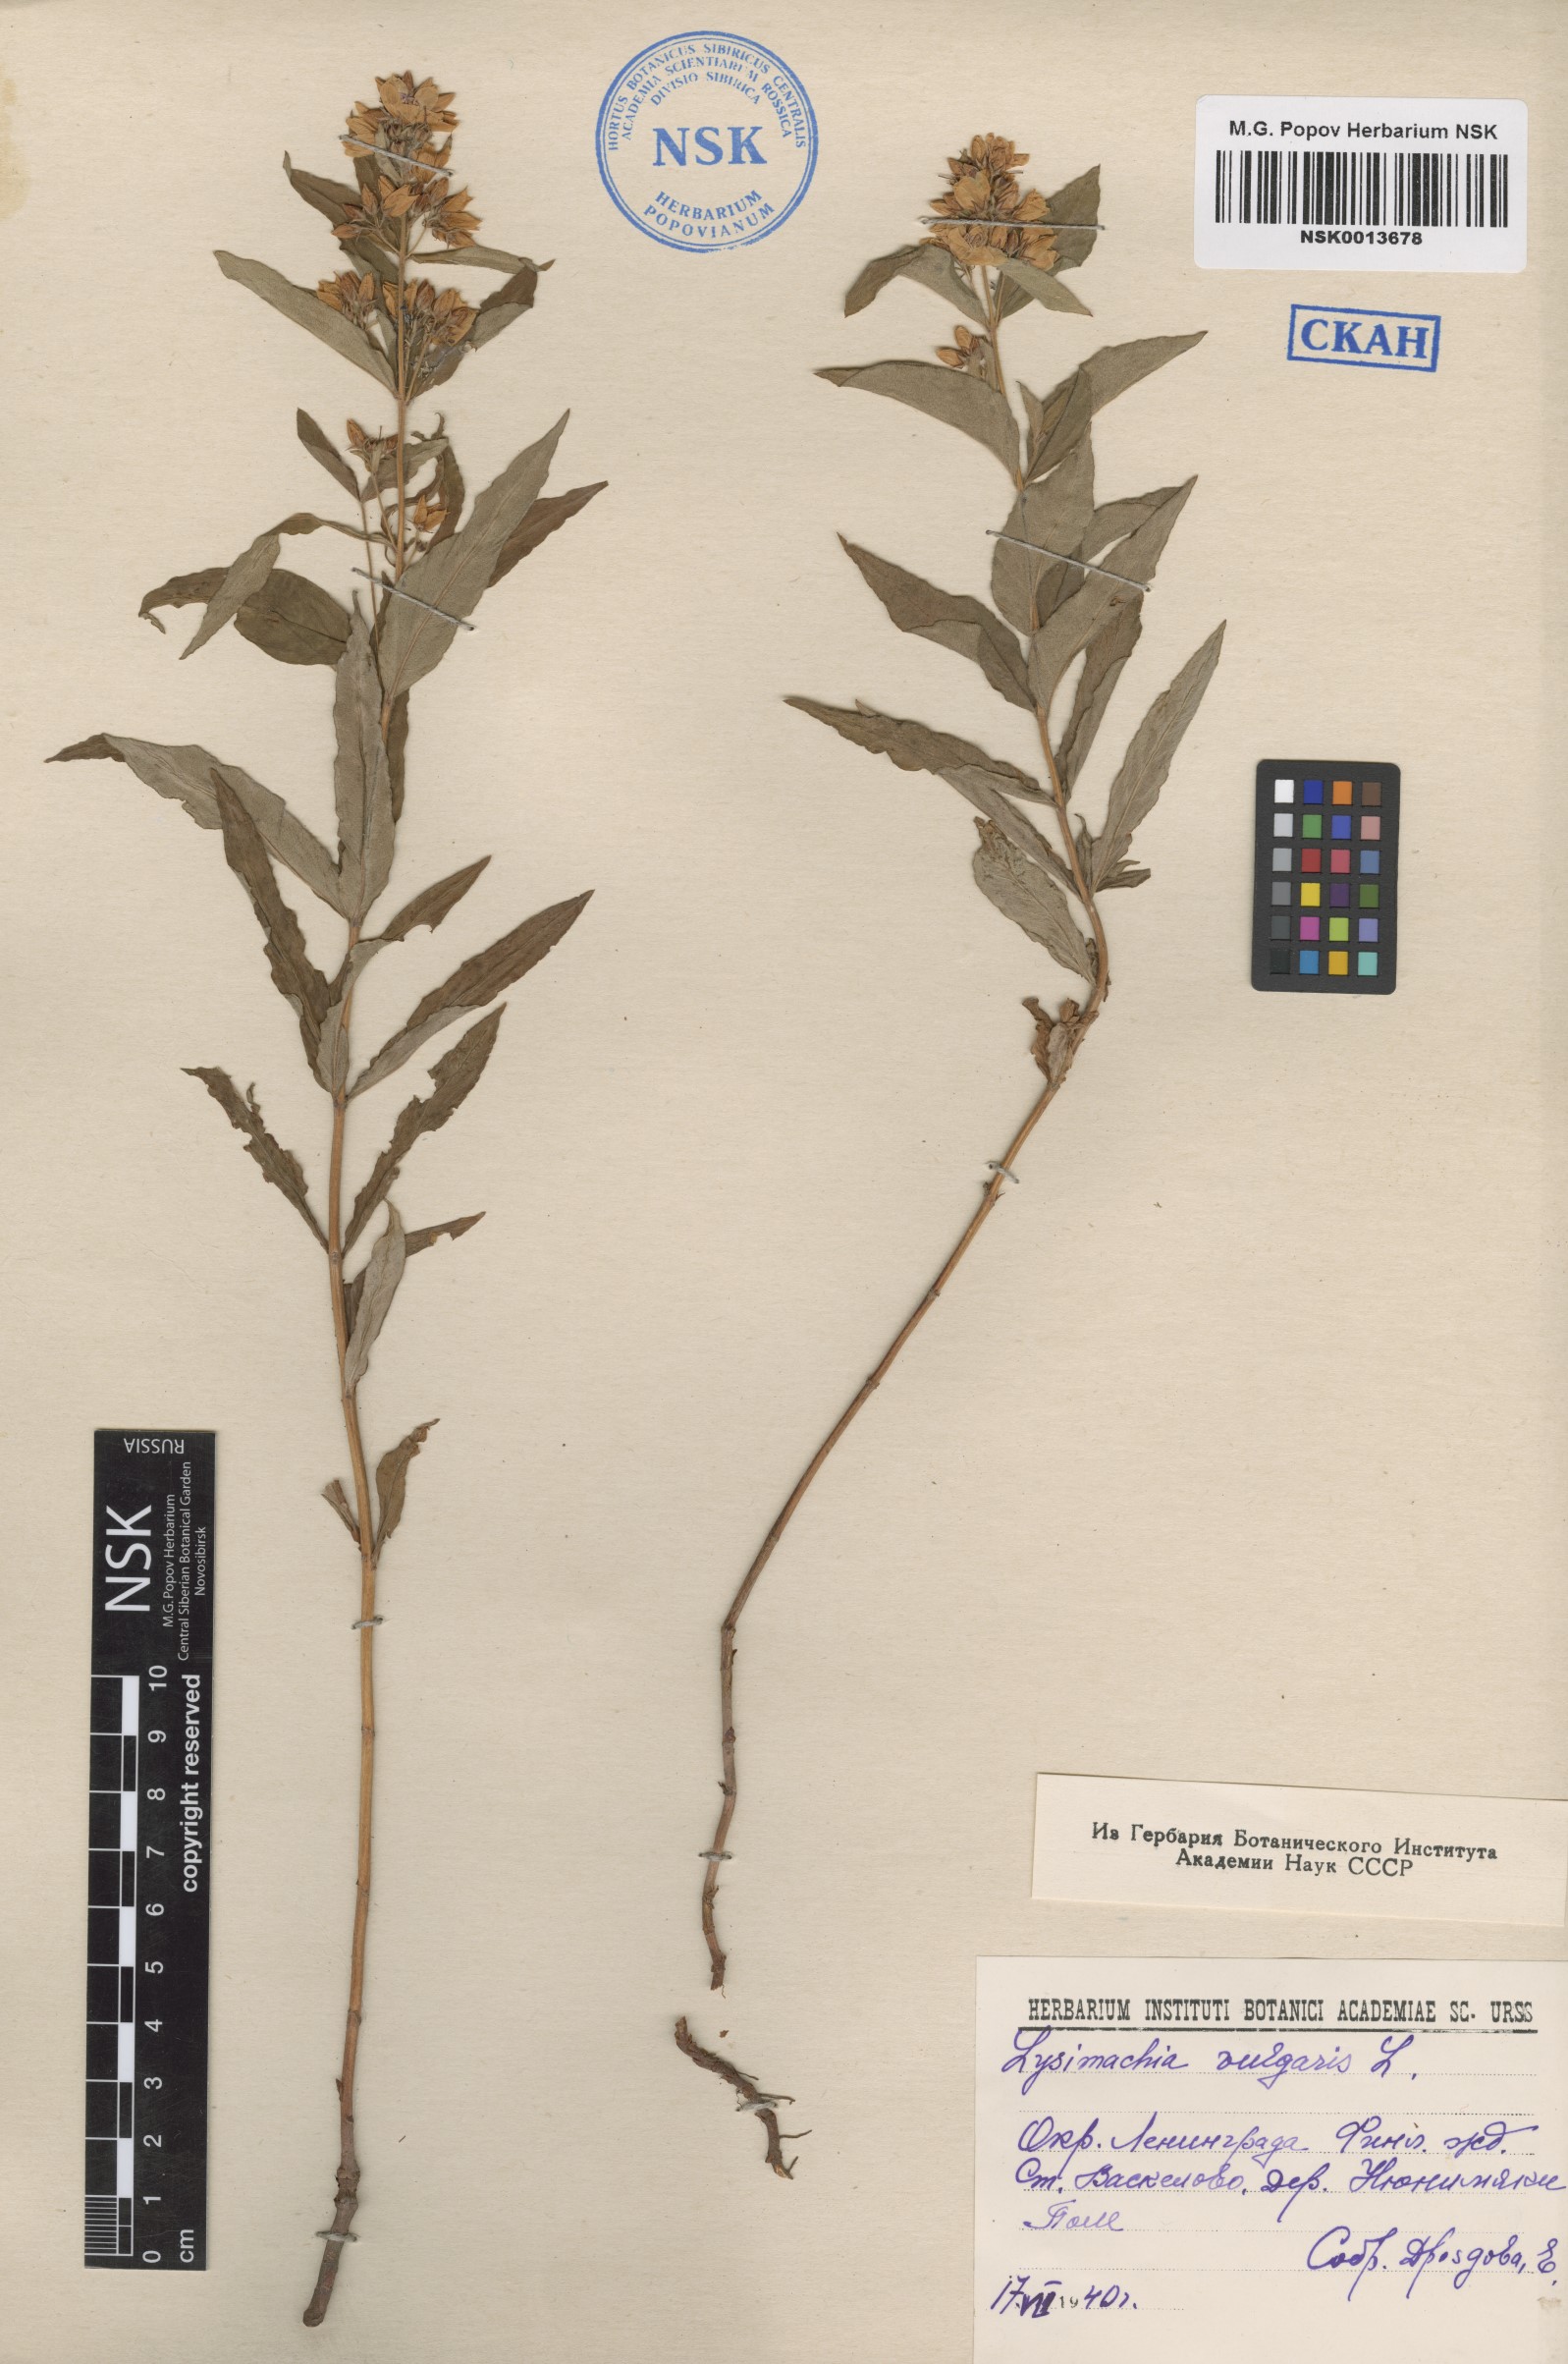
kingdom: Plantae
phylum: Tracheophyta
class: Magnoliopsida
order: Ericales
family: Primulaceae
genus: Lysimachia
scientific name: Lysimachia vulgaris
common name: Yellow loosestrife
